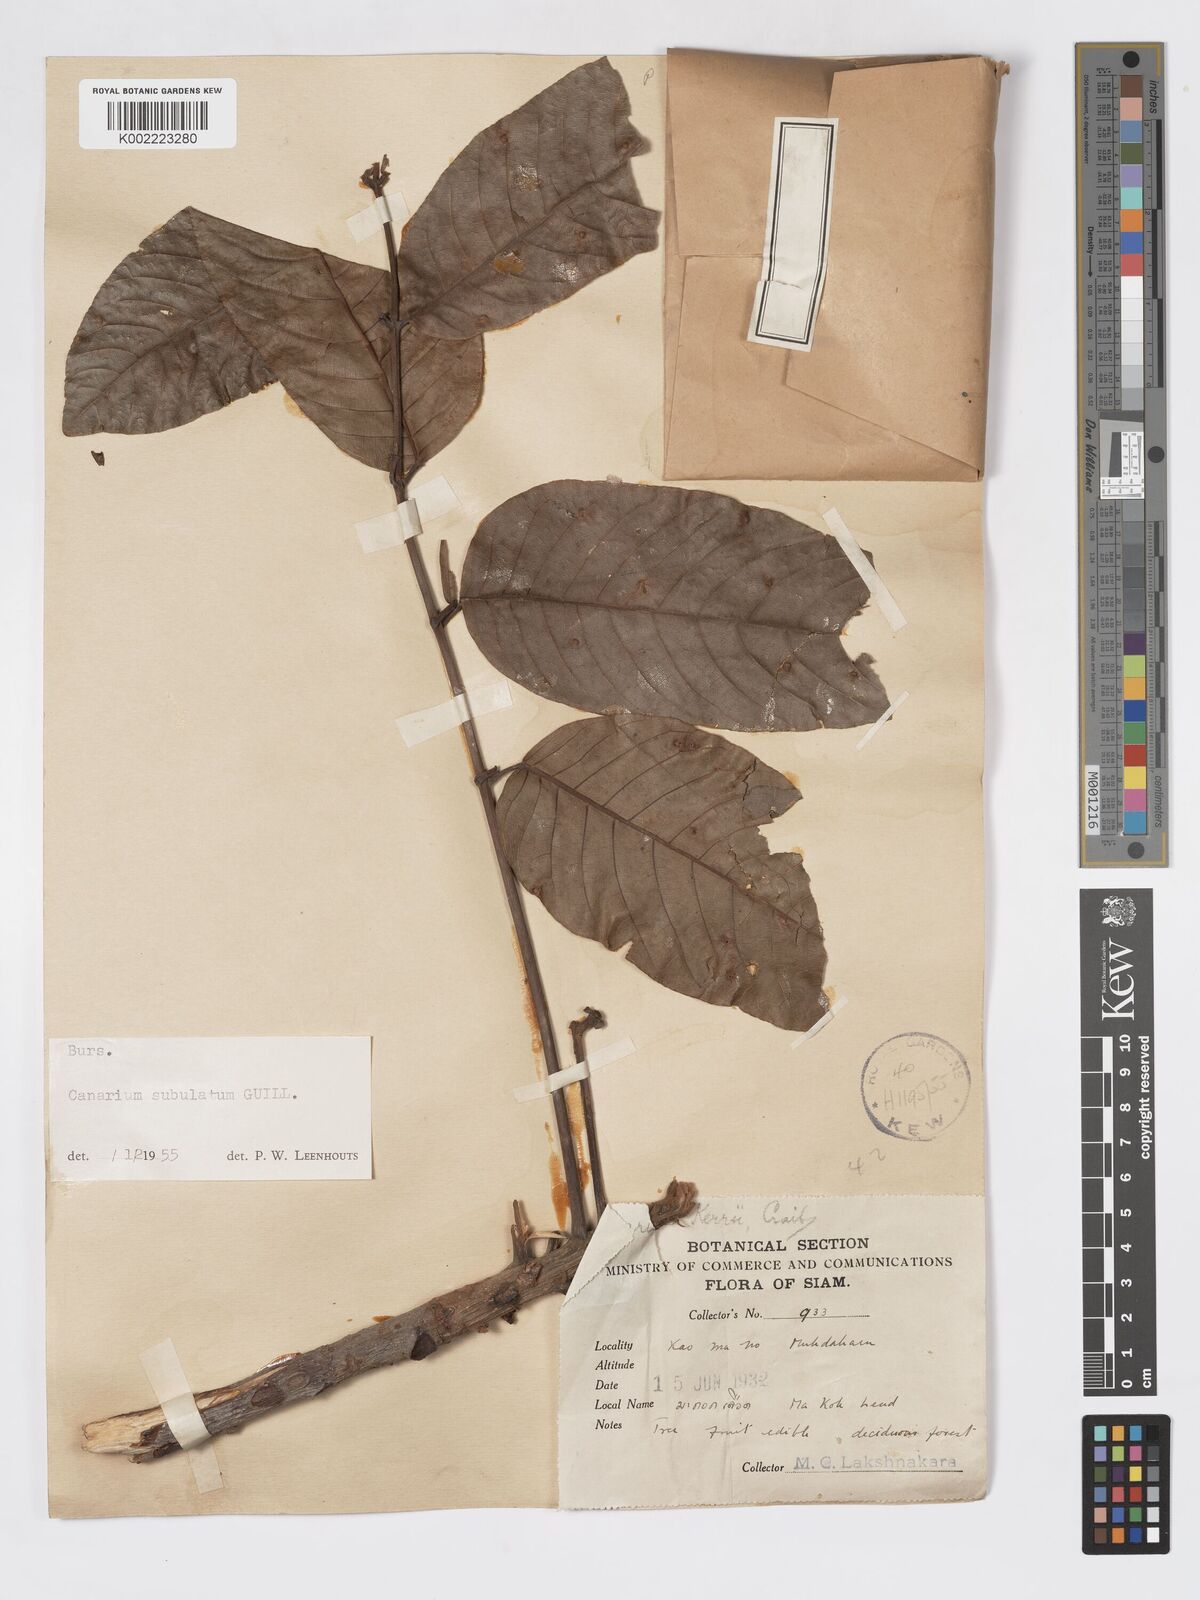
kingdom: Plantae
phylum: Tracheophyta
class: Magnoliopsida
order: Sapindales
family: Burseraceae
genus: Canarium
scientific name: Canarium subulatum
